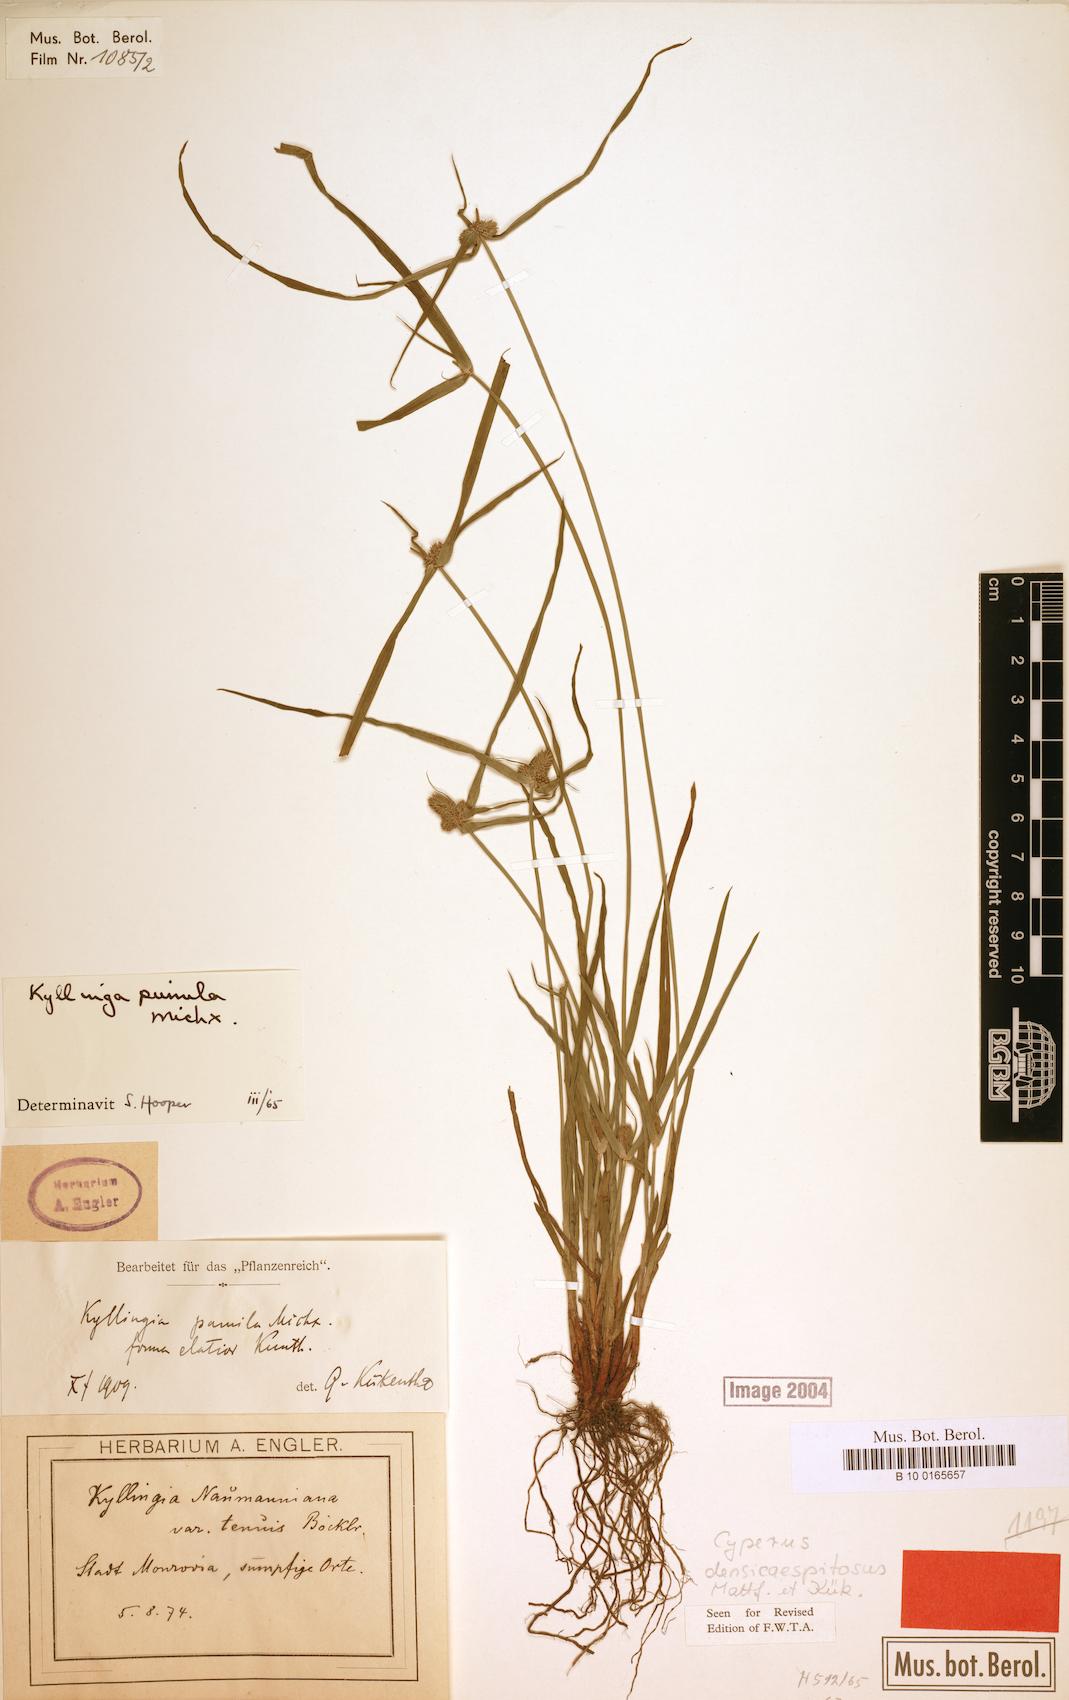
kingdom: Plantae
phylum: Tracheophyta
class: Liliopsida
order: Poales
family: Cyperaceae
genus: Cyperus
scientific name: Cyperus hortensis
